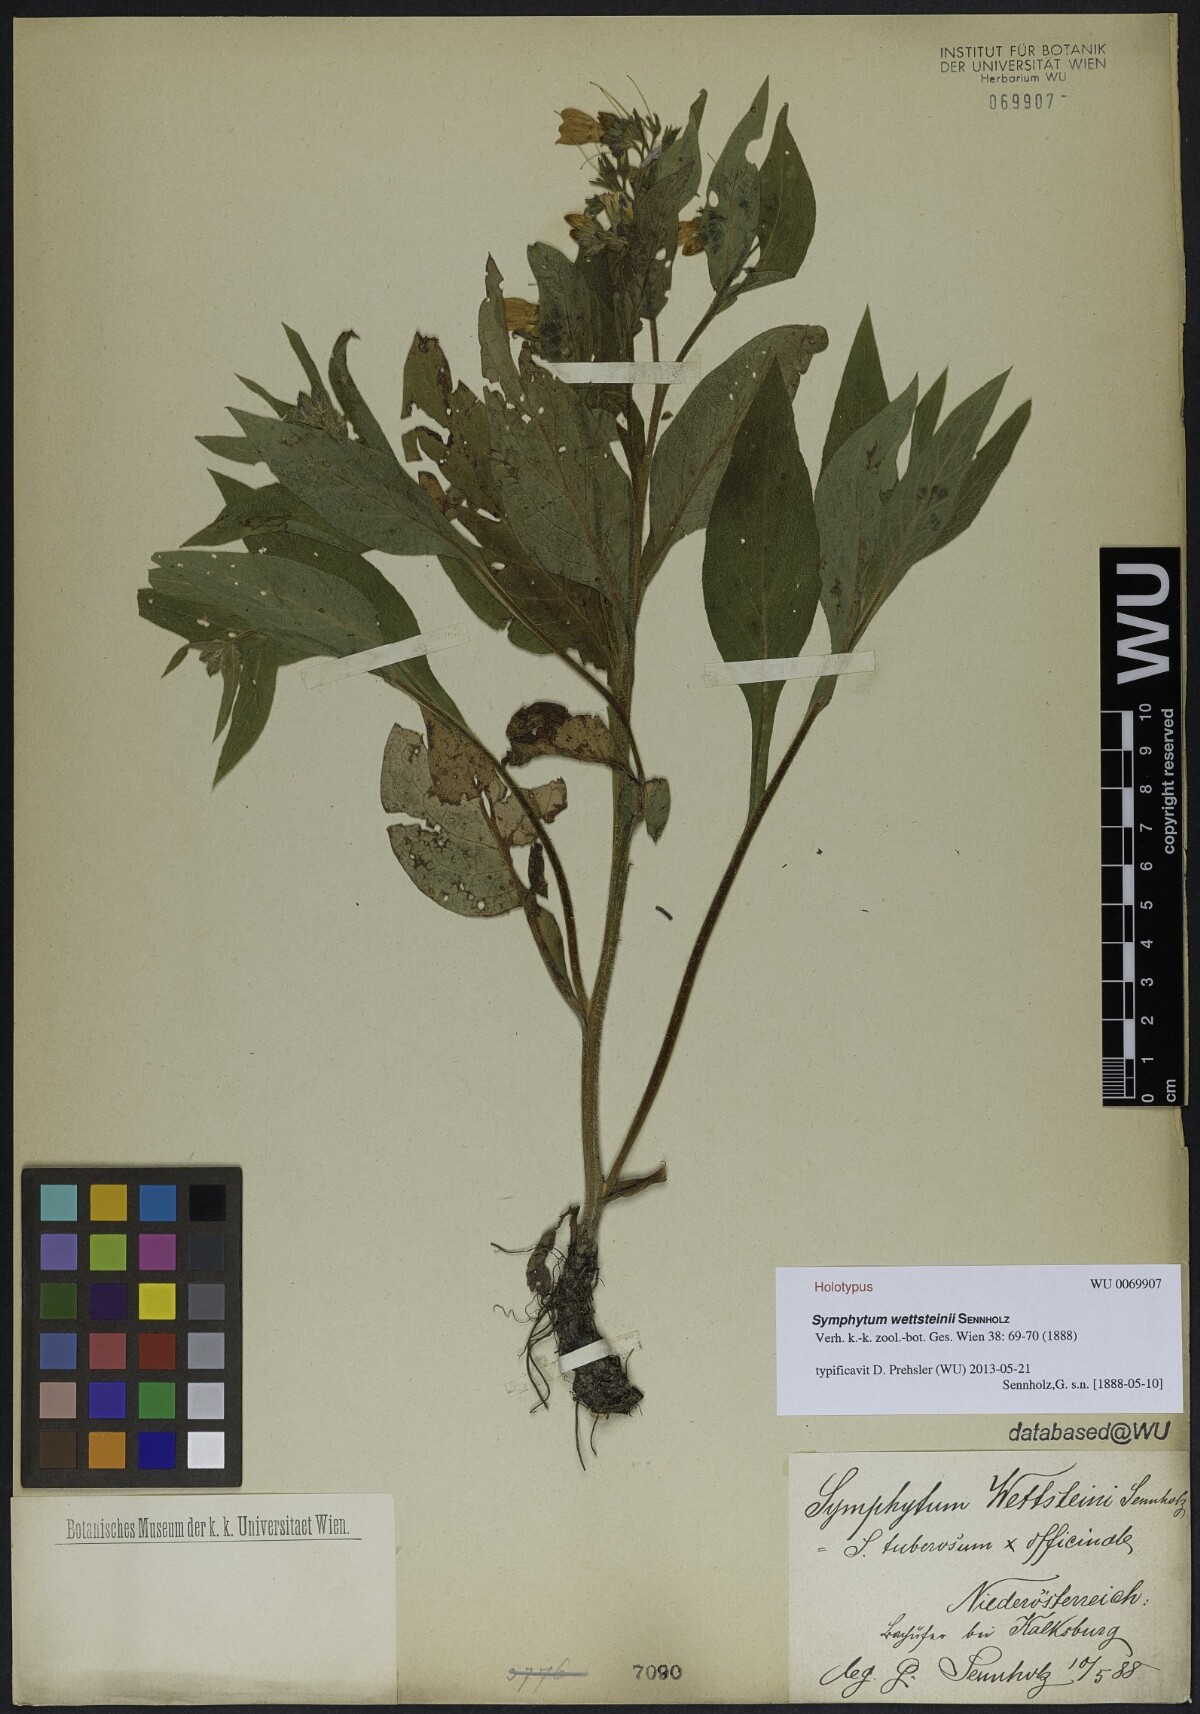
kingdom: Plantae
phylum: Tracheophyta
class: Magnoliopsida
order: Boraginales
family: Boraginaceae
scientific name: Boraginaceae
